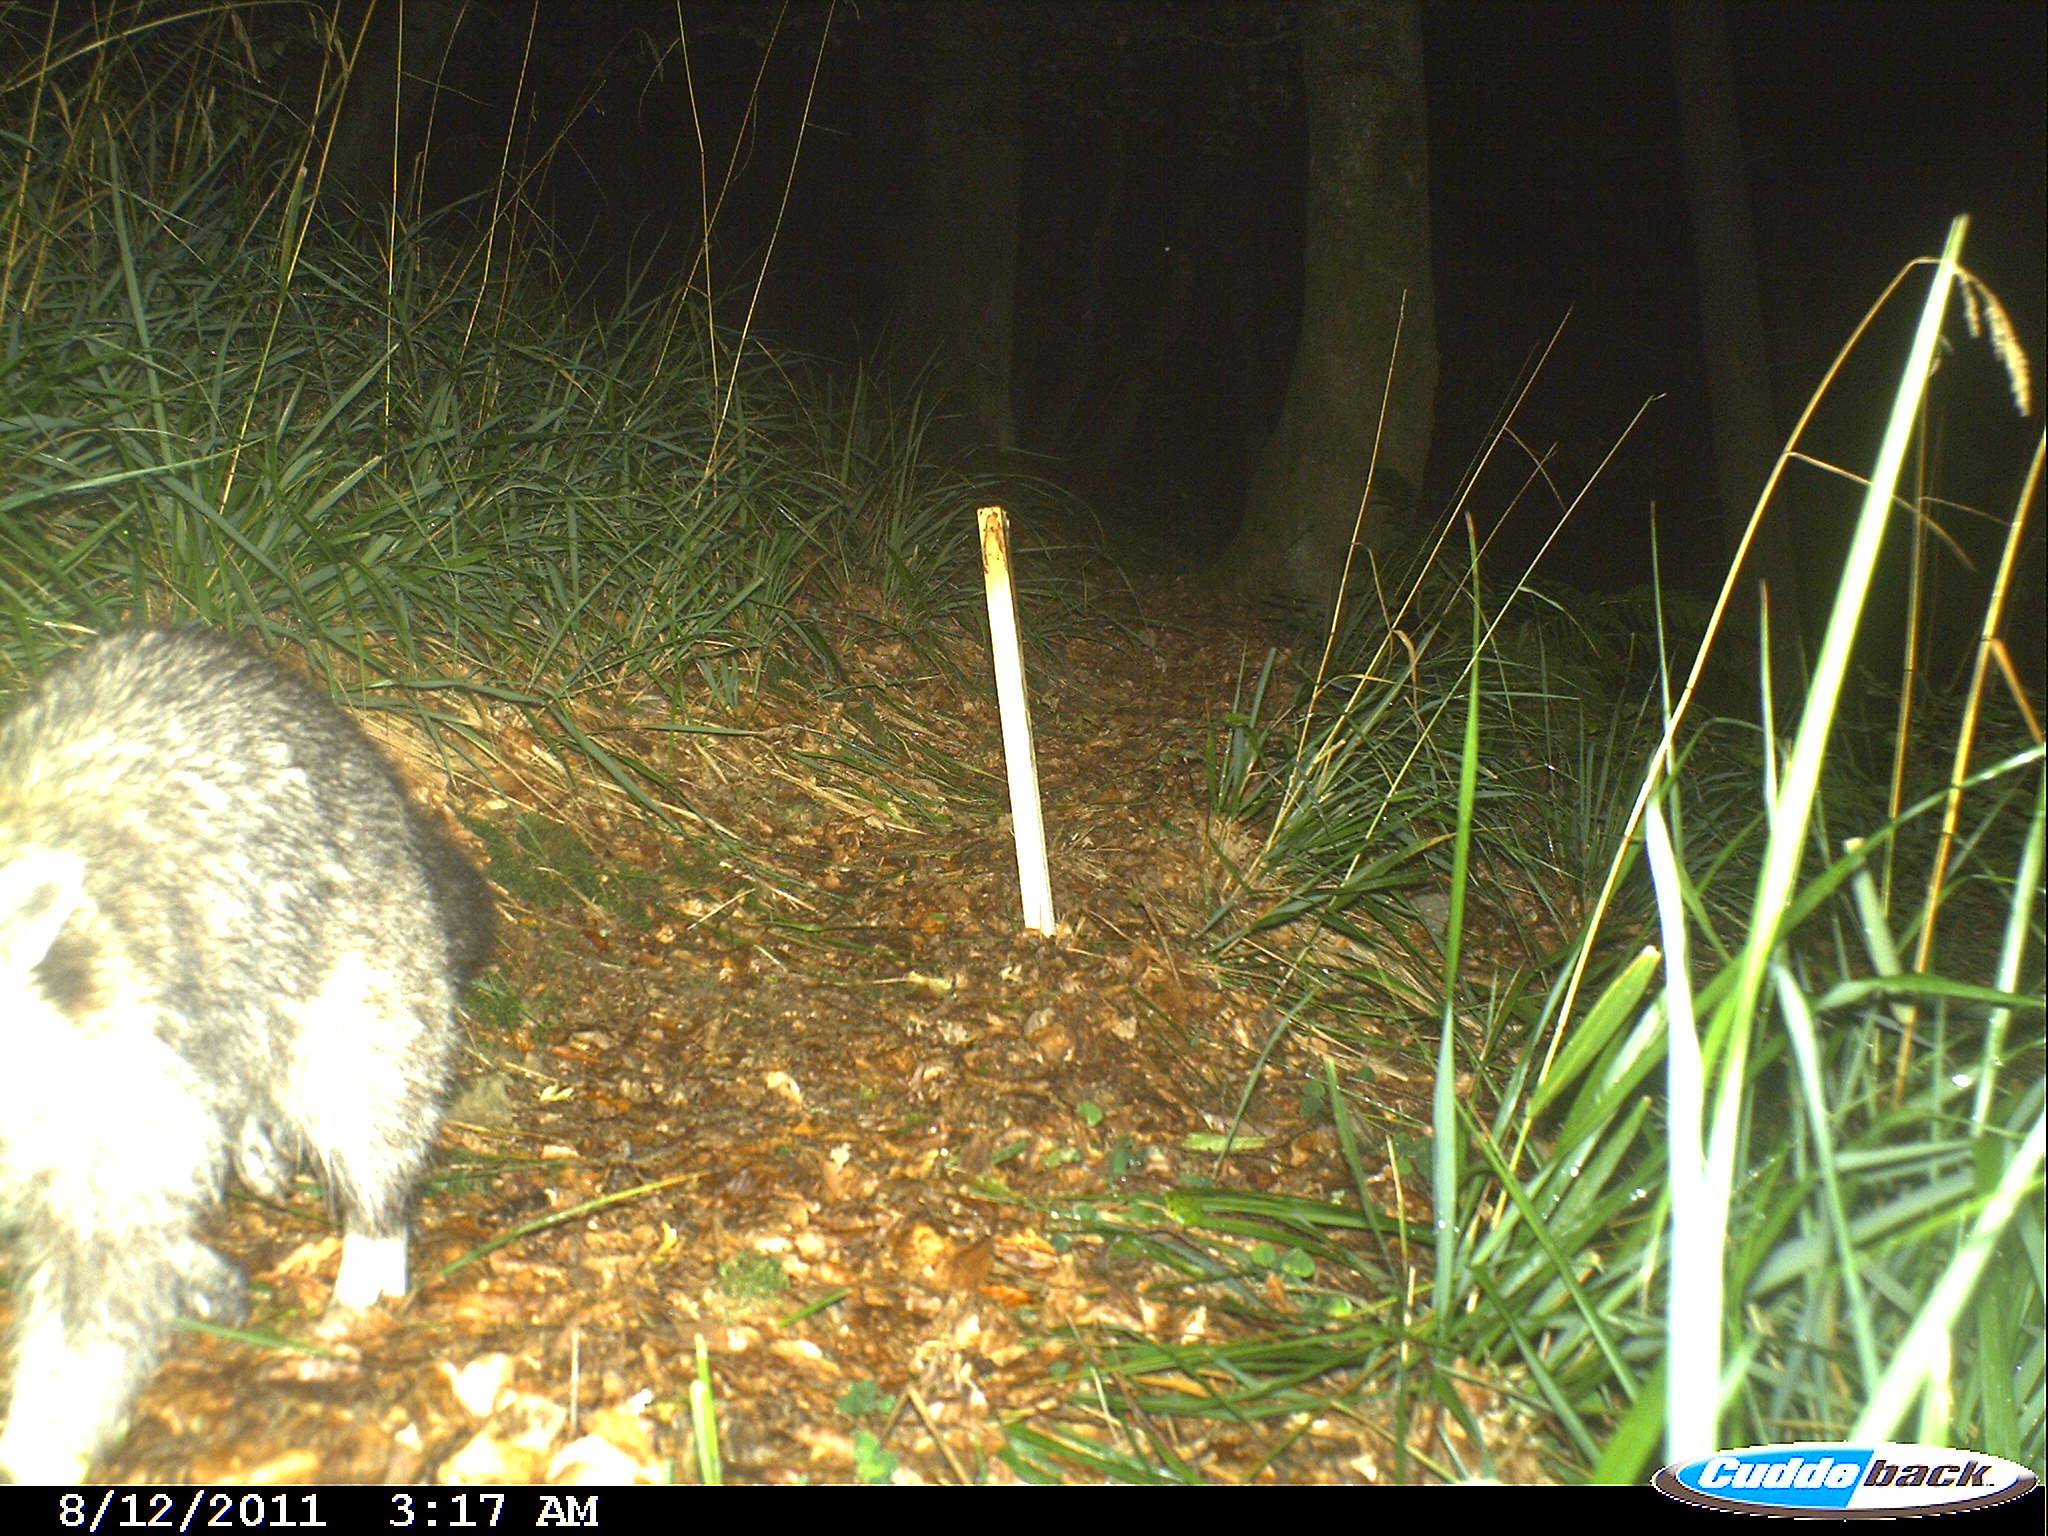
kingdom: Animalia
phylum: Chordata
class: Mammalia
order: Carnivora
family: Procyonidae
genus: Procyon
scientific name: Procyon lotor
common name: Raccoon
